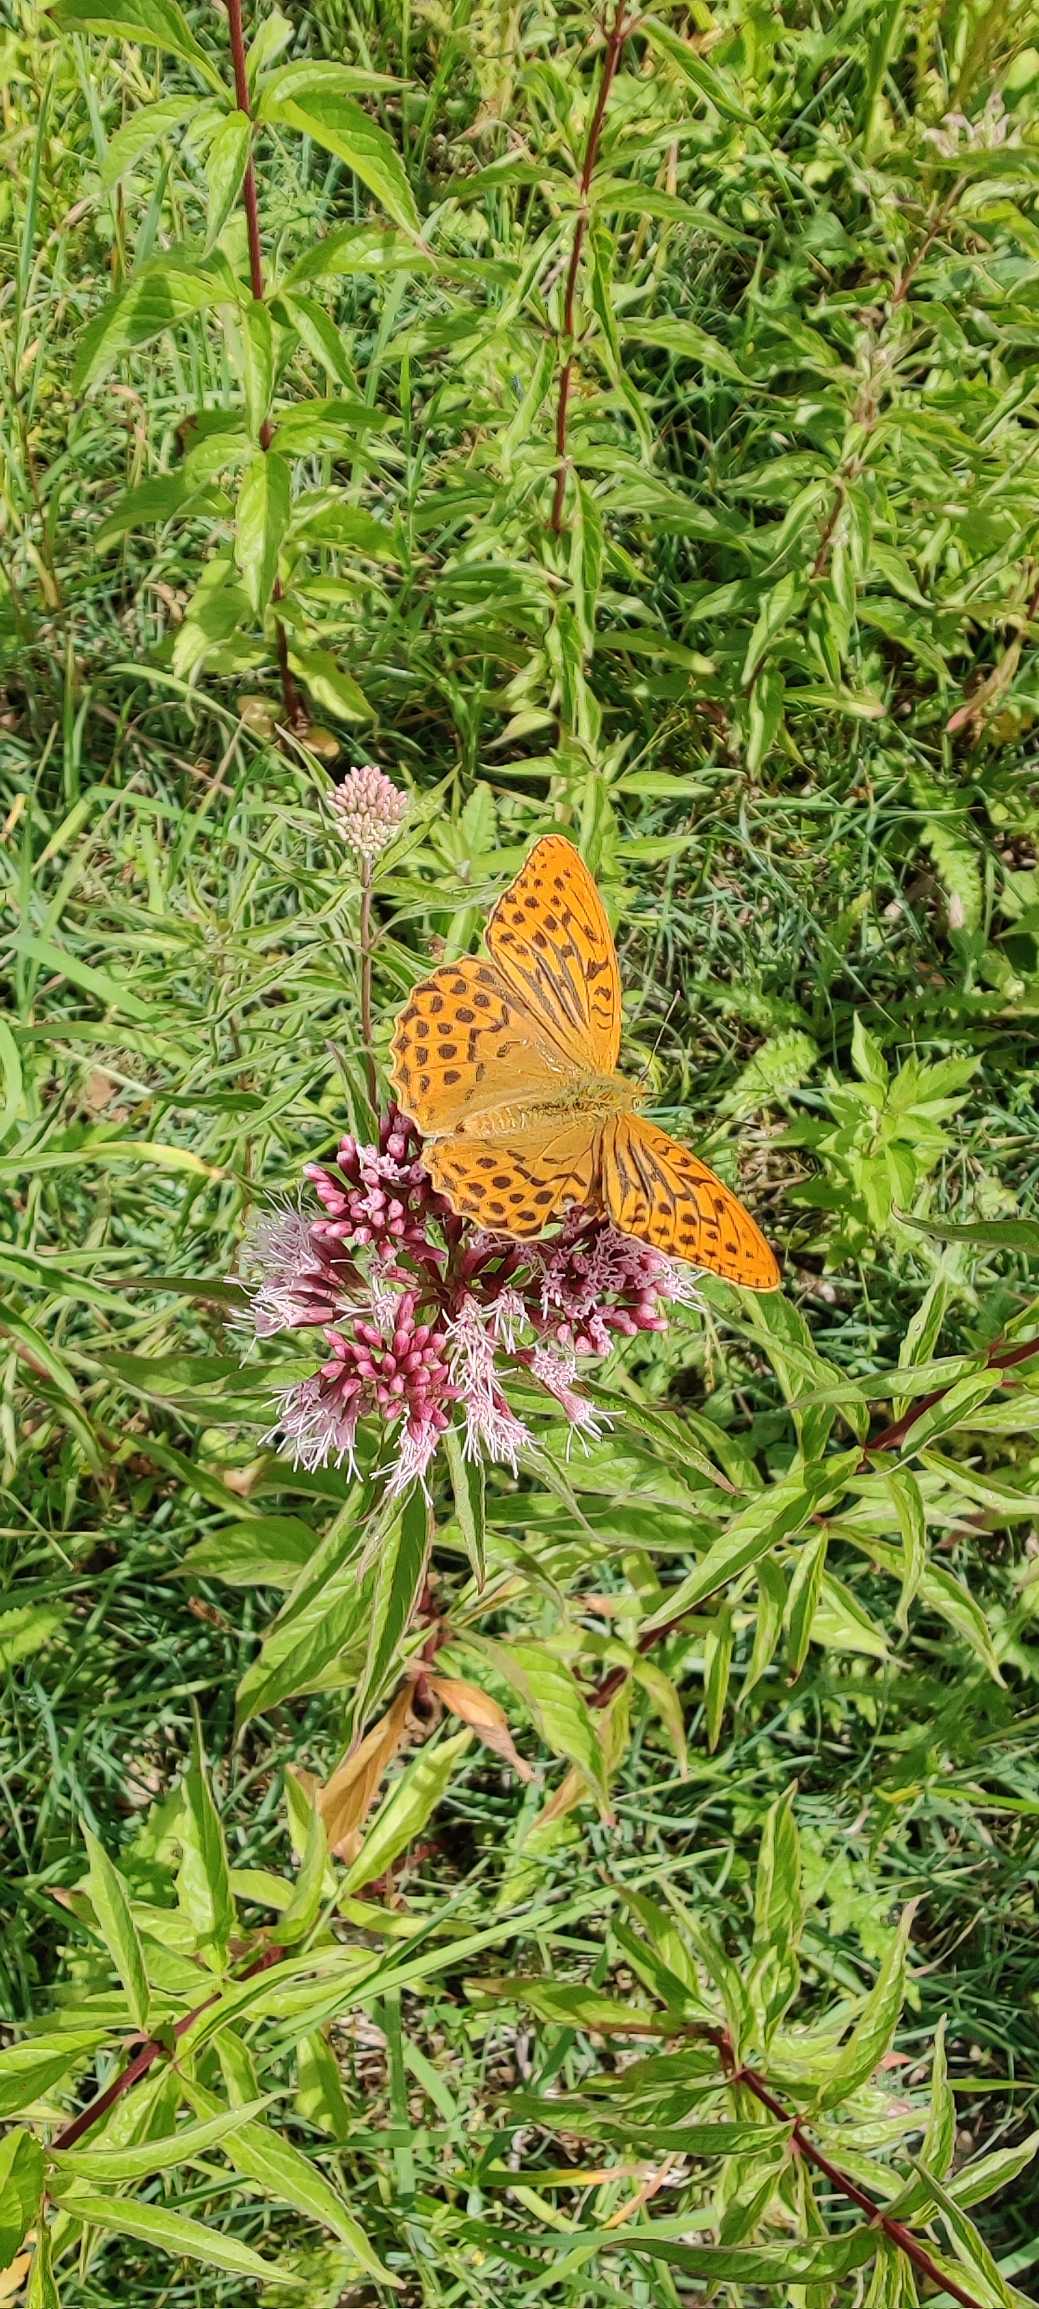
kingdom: Animalia
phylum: Arthropoda
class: Insecta
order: Lepidoptera
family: Nymphalidae
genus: Argynnis
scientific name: Argynnis paphia
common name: Kejserkåbe
